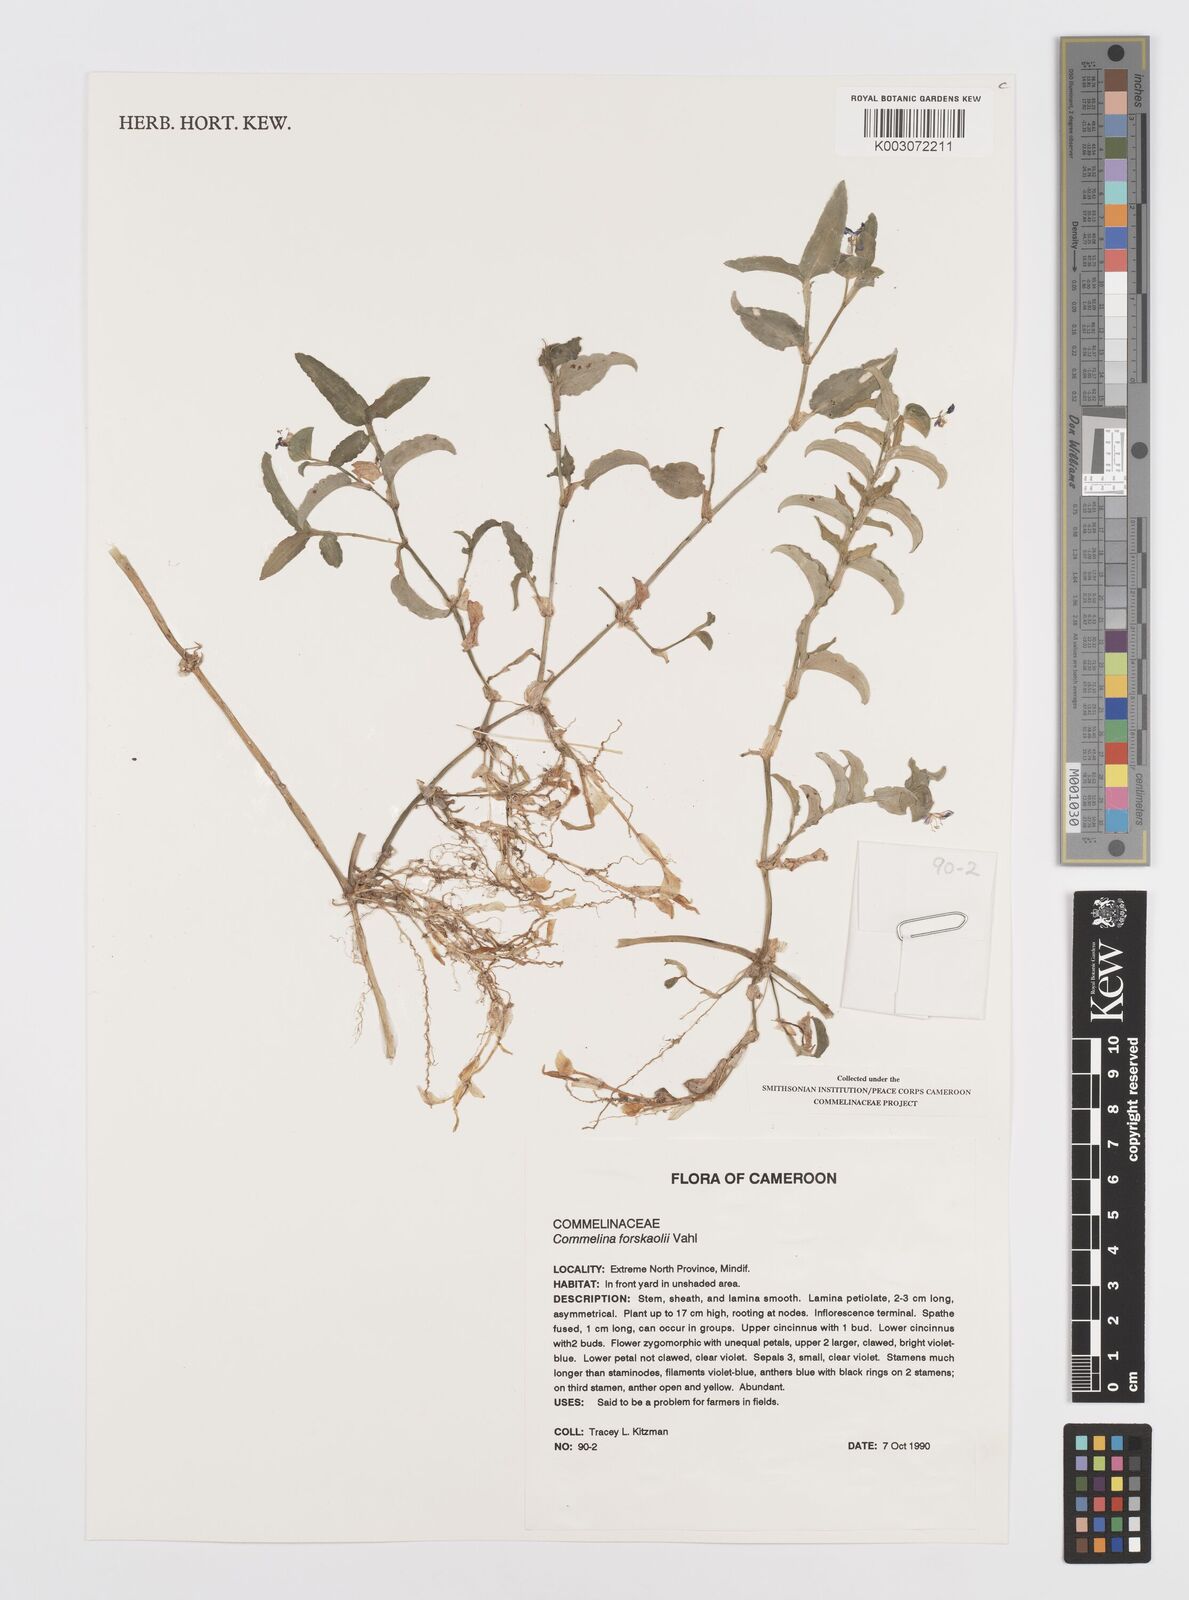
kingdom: Plantae
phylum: Tracheophyta
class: Liliopsida
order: Commelinales
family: Commelinaceae
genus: Commelina
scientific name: Commelina forskaolii
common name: Rat's ear
